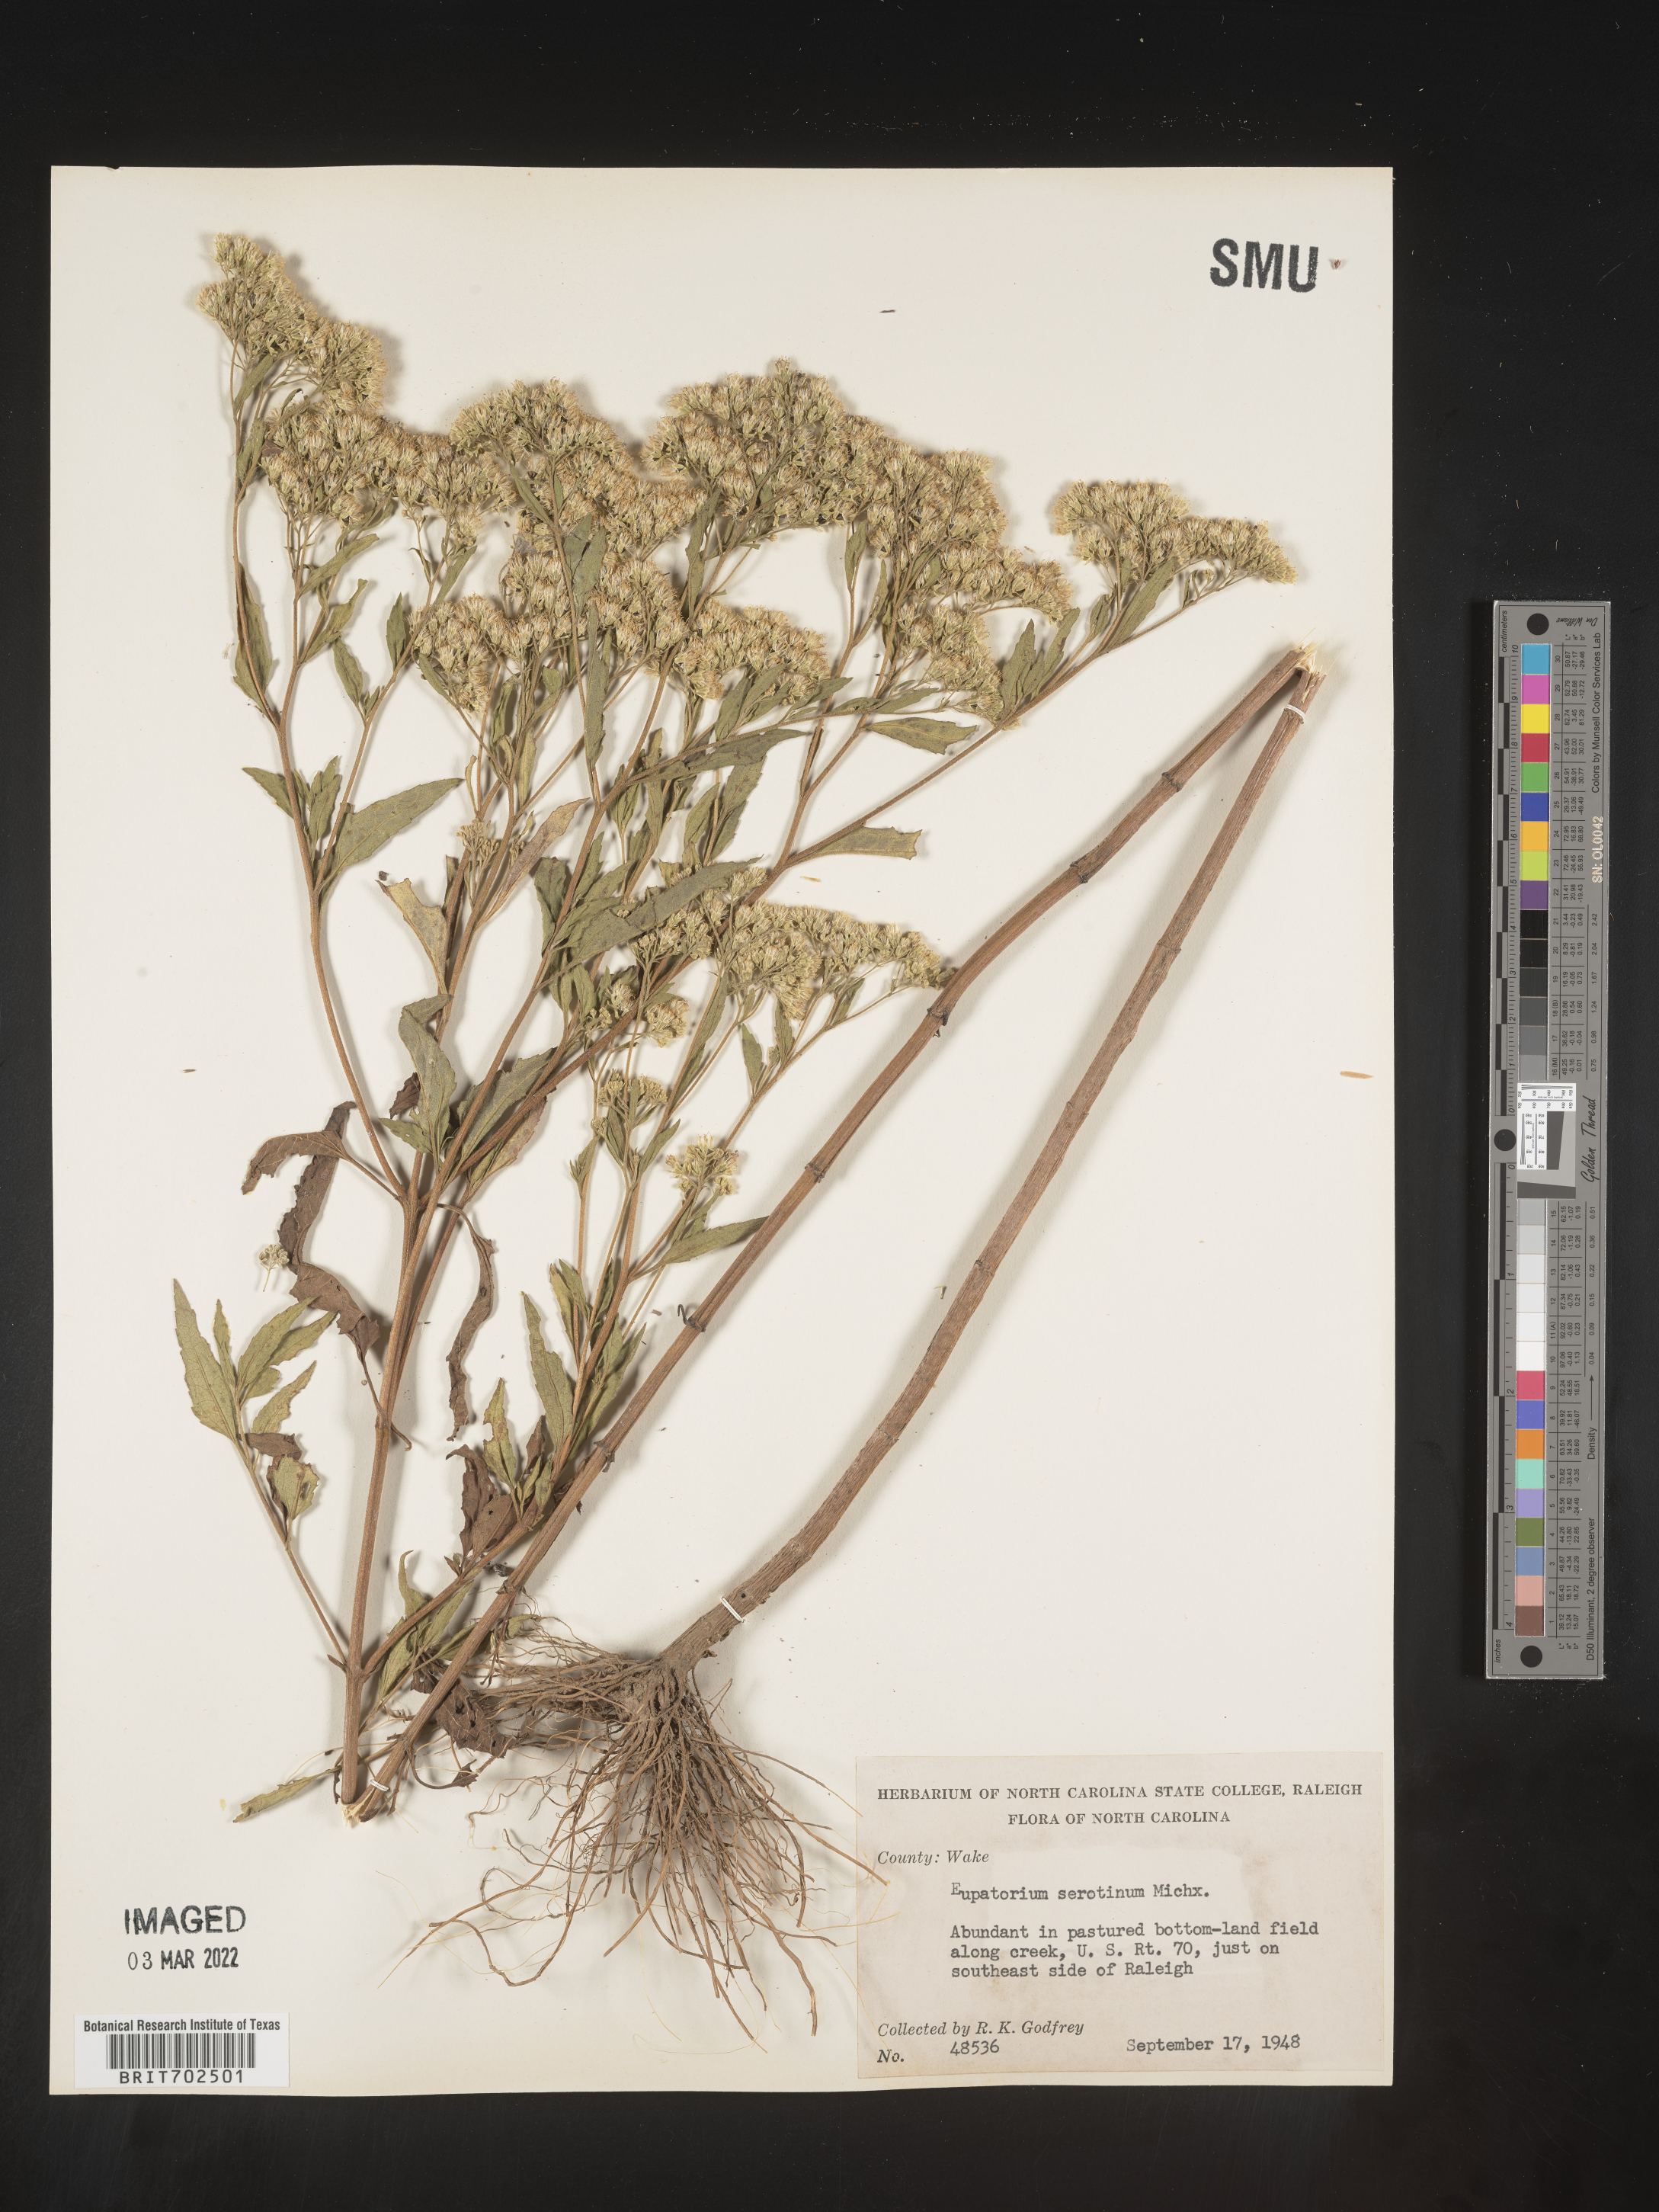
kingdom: Plantae
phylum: Tracheophyta
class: Magnoliopsida
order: Asterales
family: Asteraceae
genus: Eupatorium
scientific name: Eupatorium serotinum
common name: Late boneset
